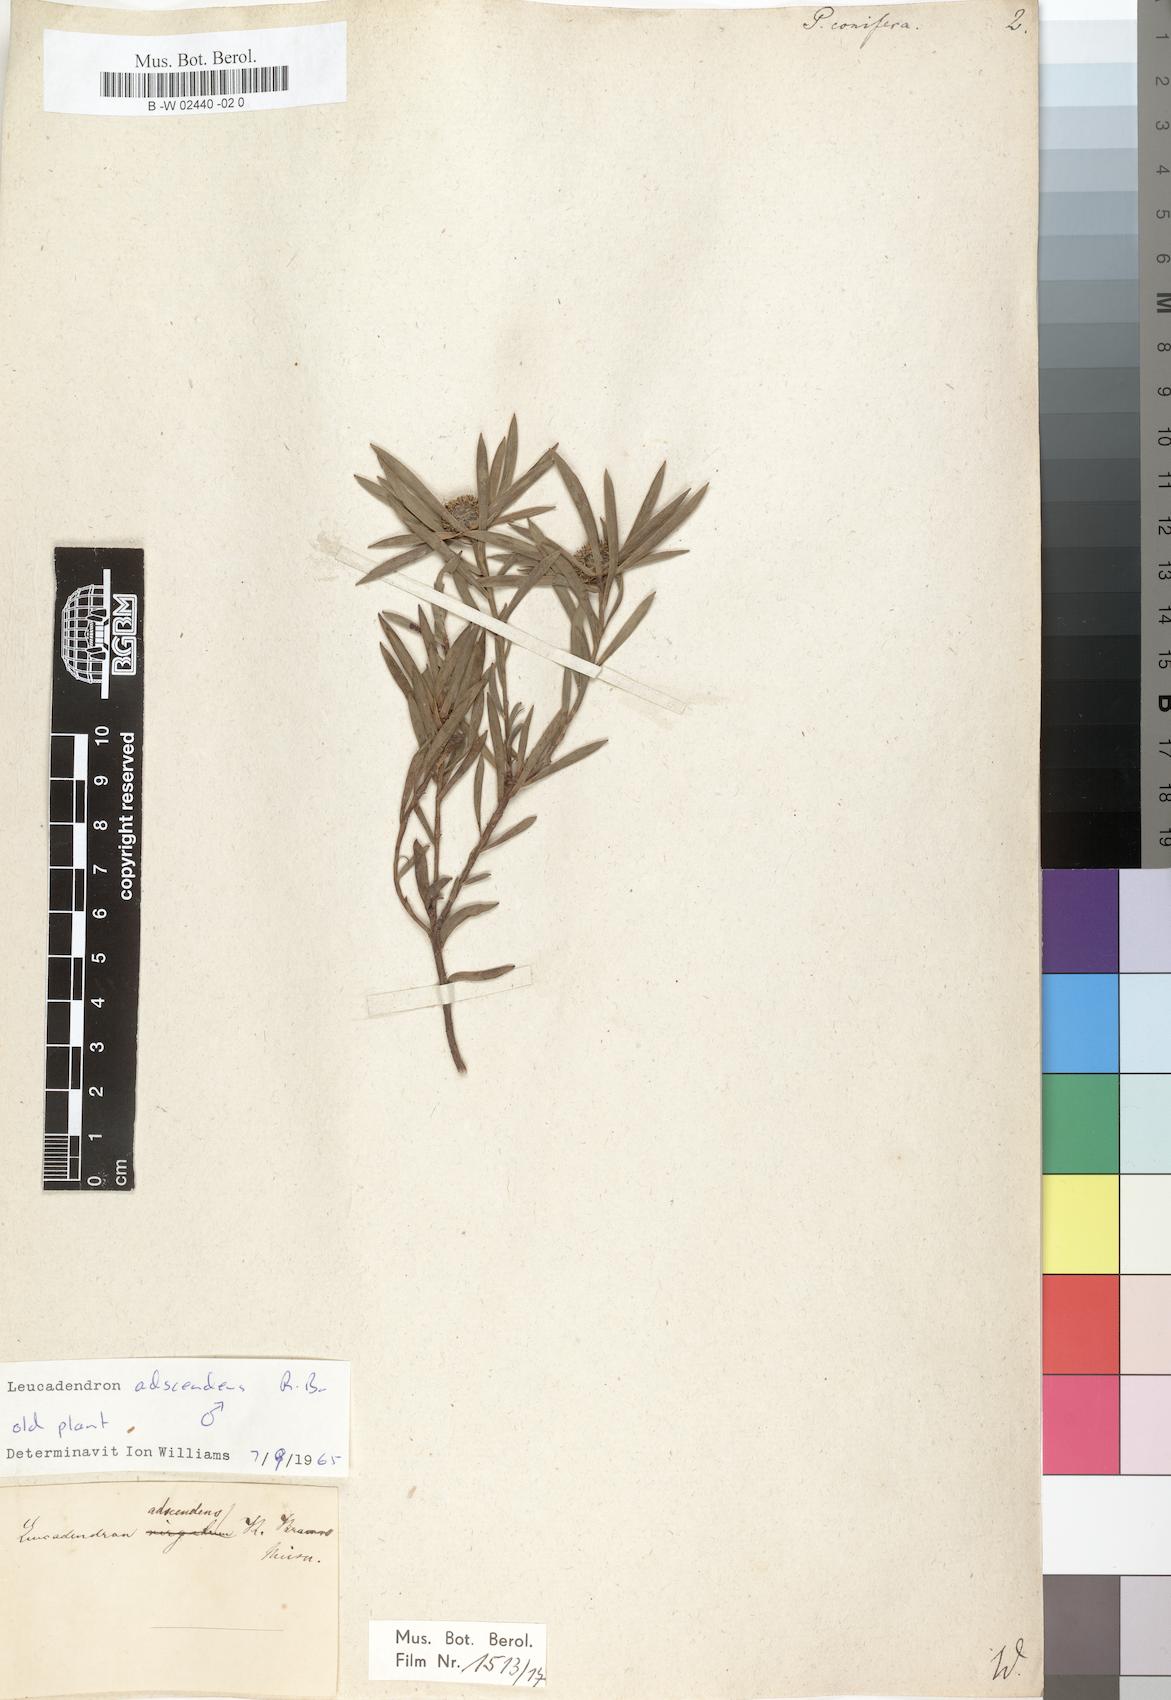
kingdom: Plantae
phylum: Tracheophyta
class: Magnoliopsida
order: Proteales
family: Proteaceae
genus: Leucadendron
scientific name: Leucadendron
